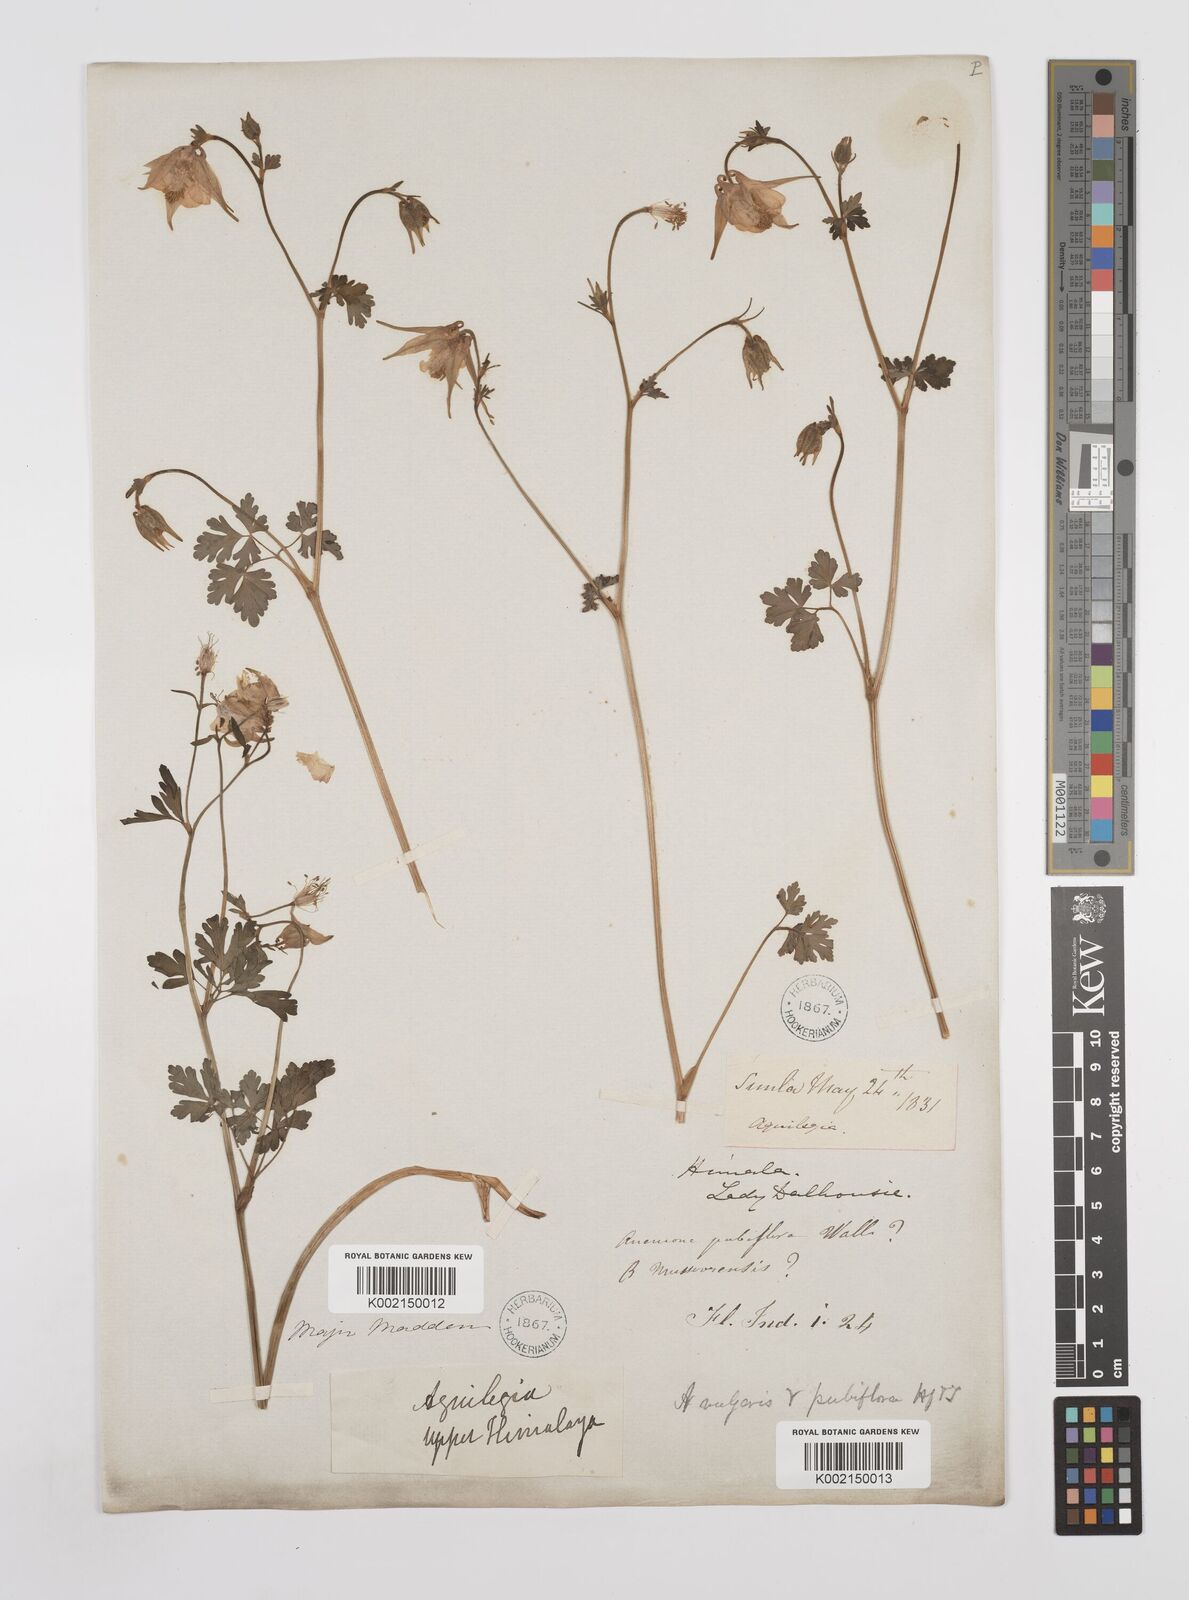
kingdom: Plantae
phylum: Tracheophyta
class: Magnoliopsida
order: Ranunculales
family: Ranunculaceae
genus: Aquilegia
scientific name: Aquilegia pubiflora
